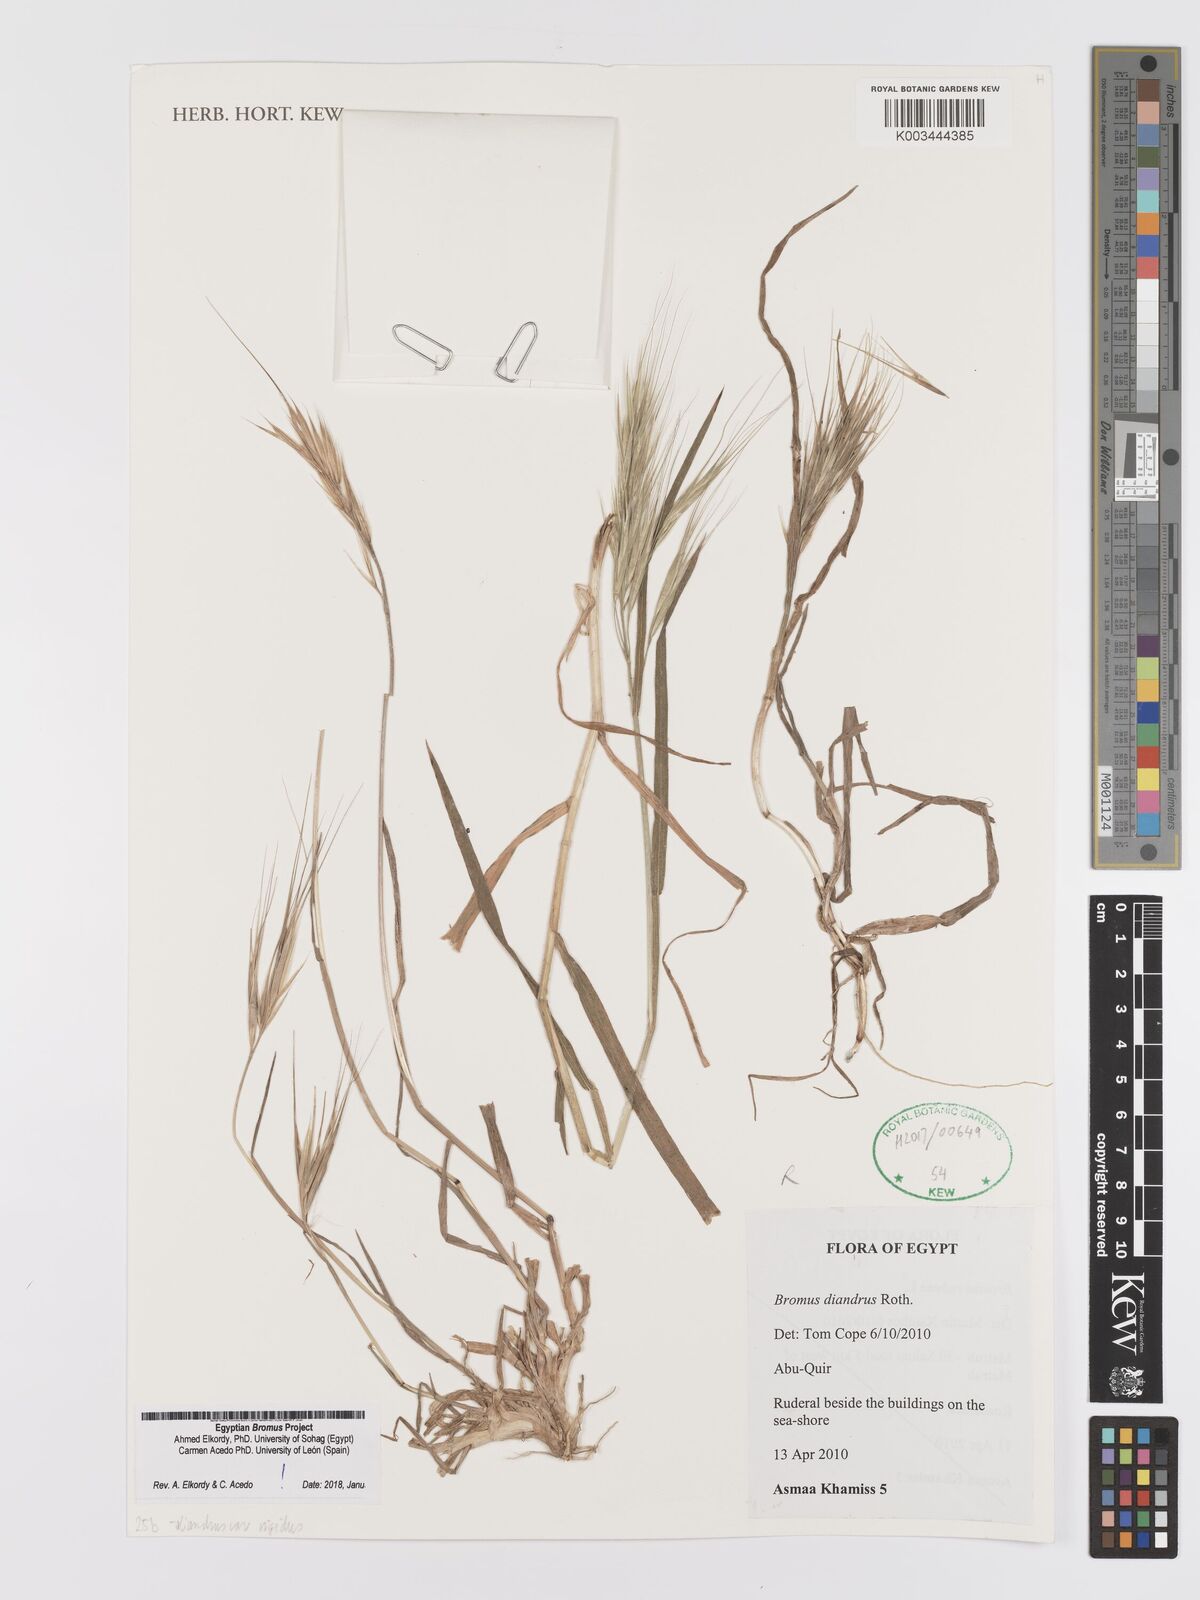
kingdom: Plantae
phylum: Tracheophyta
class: Liliopsida
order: Poales
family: Poaceae
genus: Bromus
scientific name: Bromus
